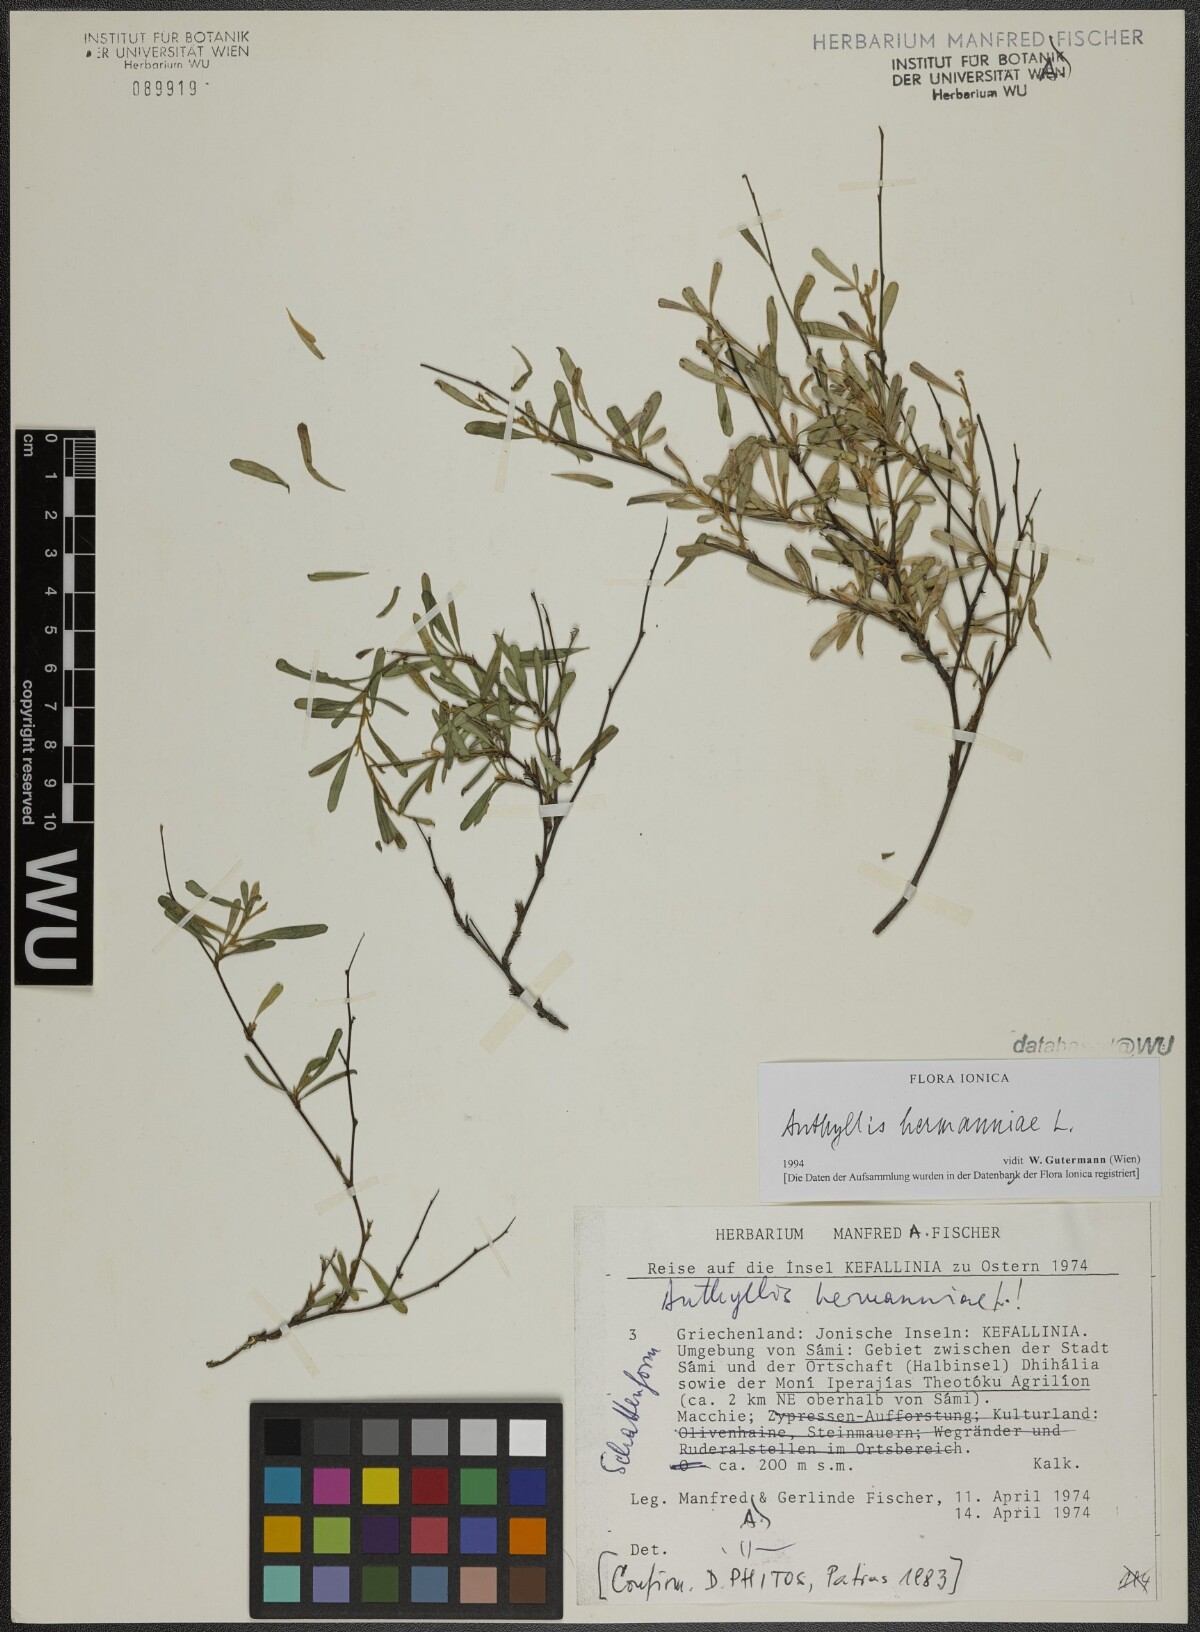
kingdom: Plantae
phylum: Tracheophyta
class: Magnoliopsida
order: Fabales
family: Fabaceae
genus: Anthyllis
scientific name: Anthyllis hermanniae
